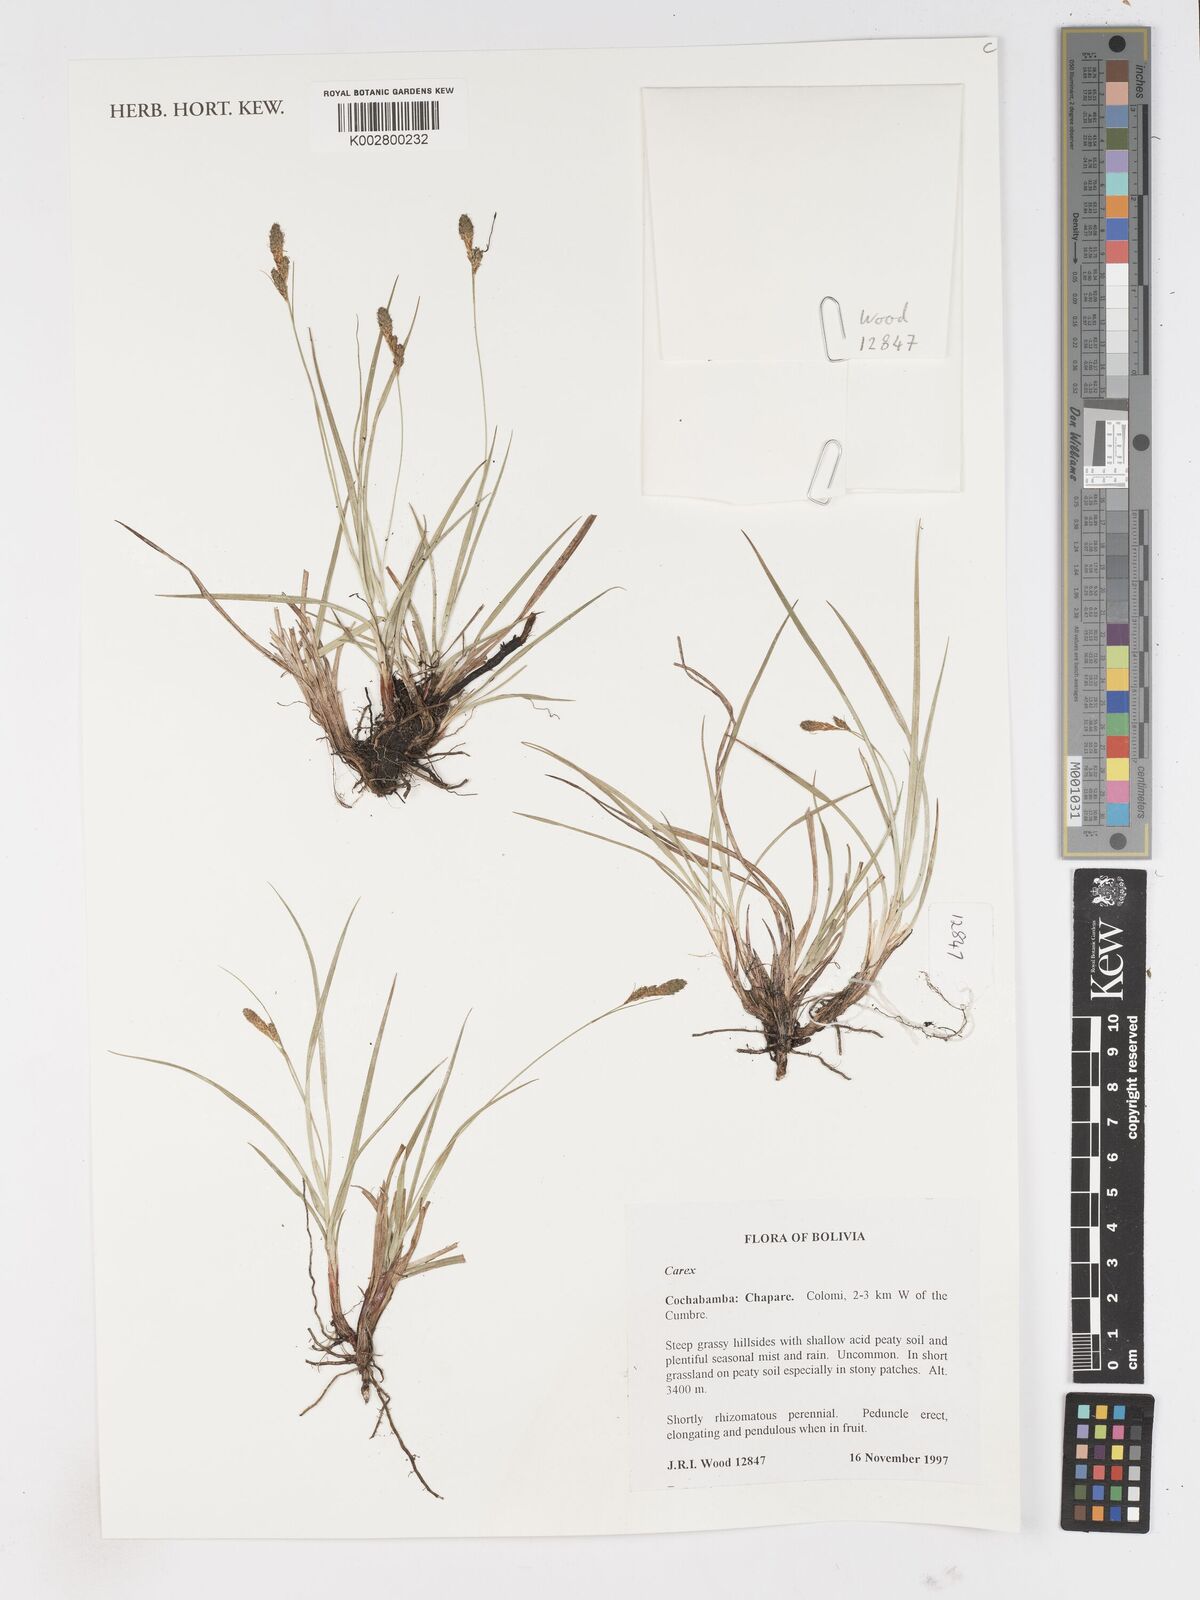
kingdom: Plantae
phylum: Tracheophyta
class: Liliopsida
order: Poales
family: Cyperaceae
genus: Carex
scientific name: Carex
